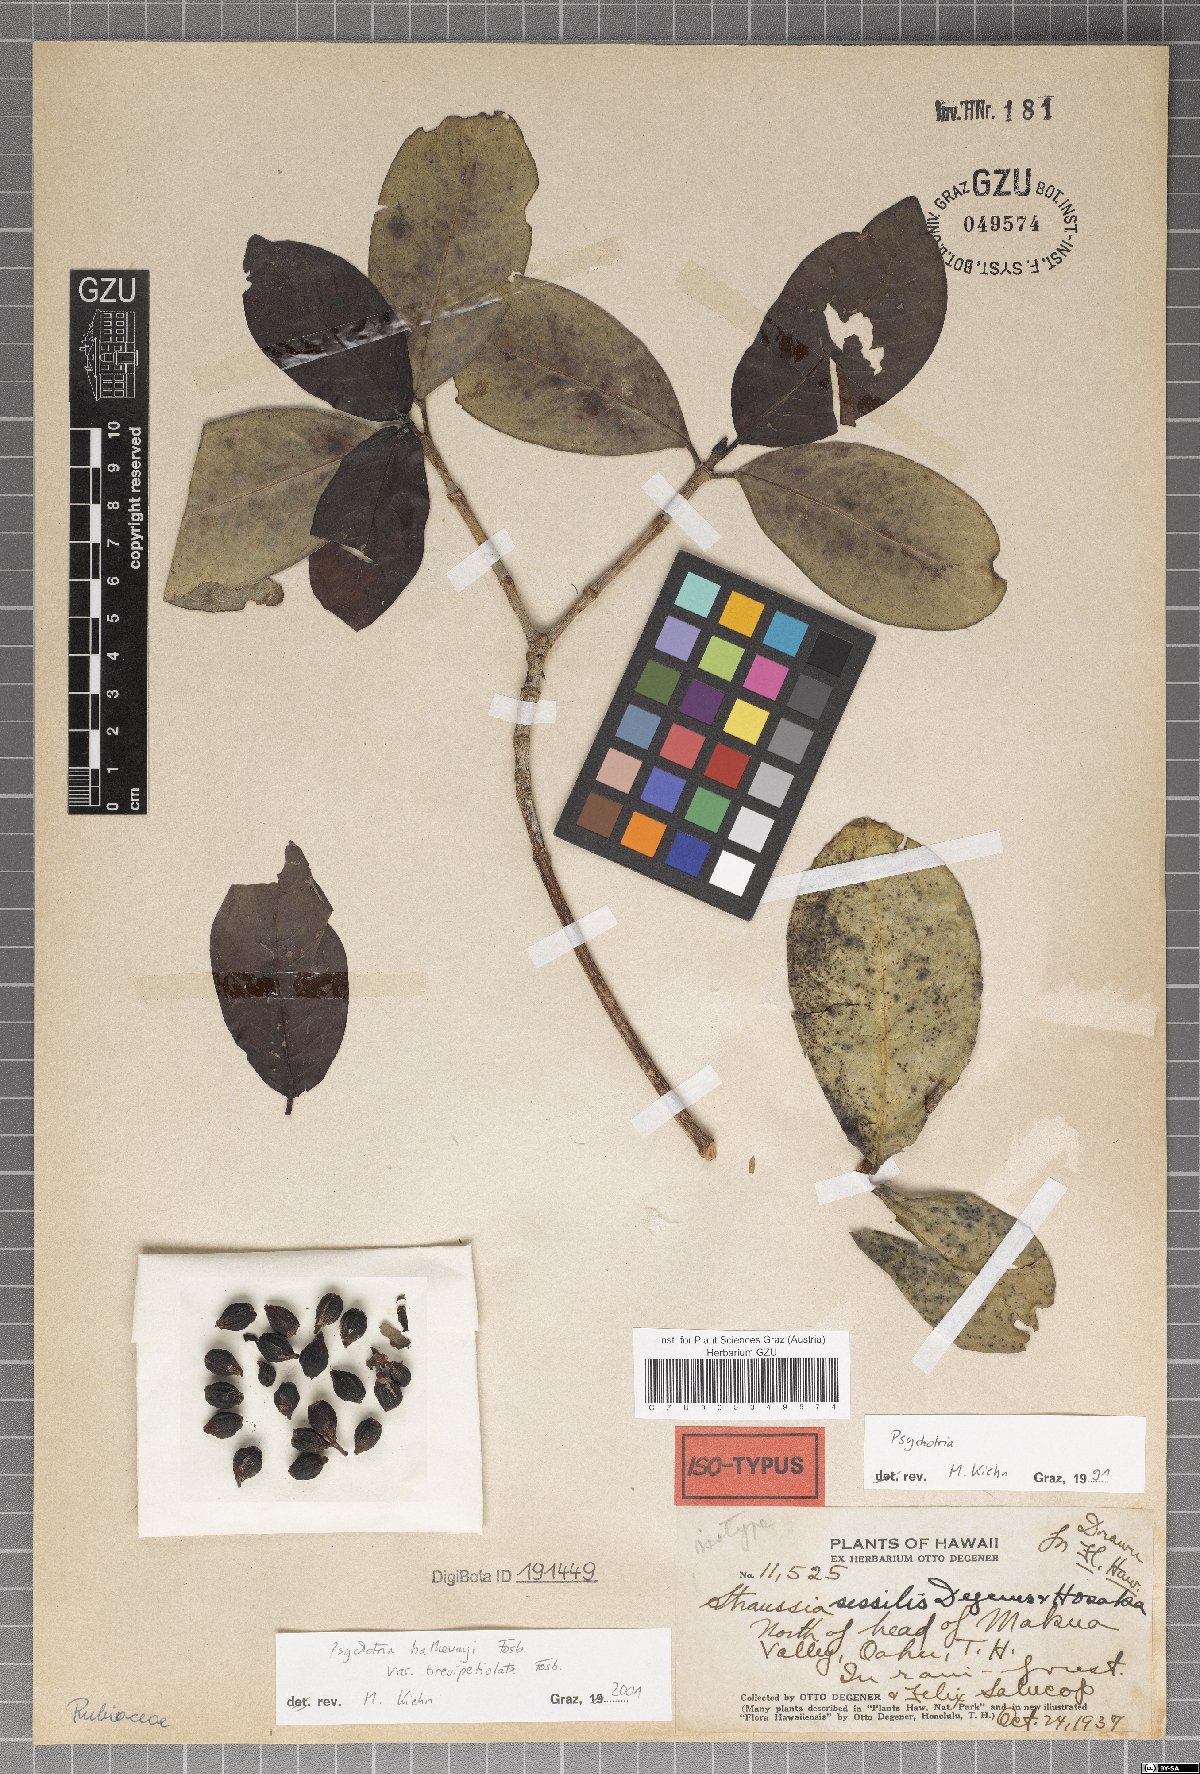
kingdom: Plantae
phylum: Tracheophyta
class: Magnoliopsida
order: Gentianales
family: Rubiaceae
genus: Psychotria
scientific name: Psychotria hathewayi
